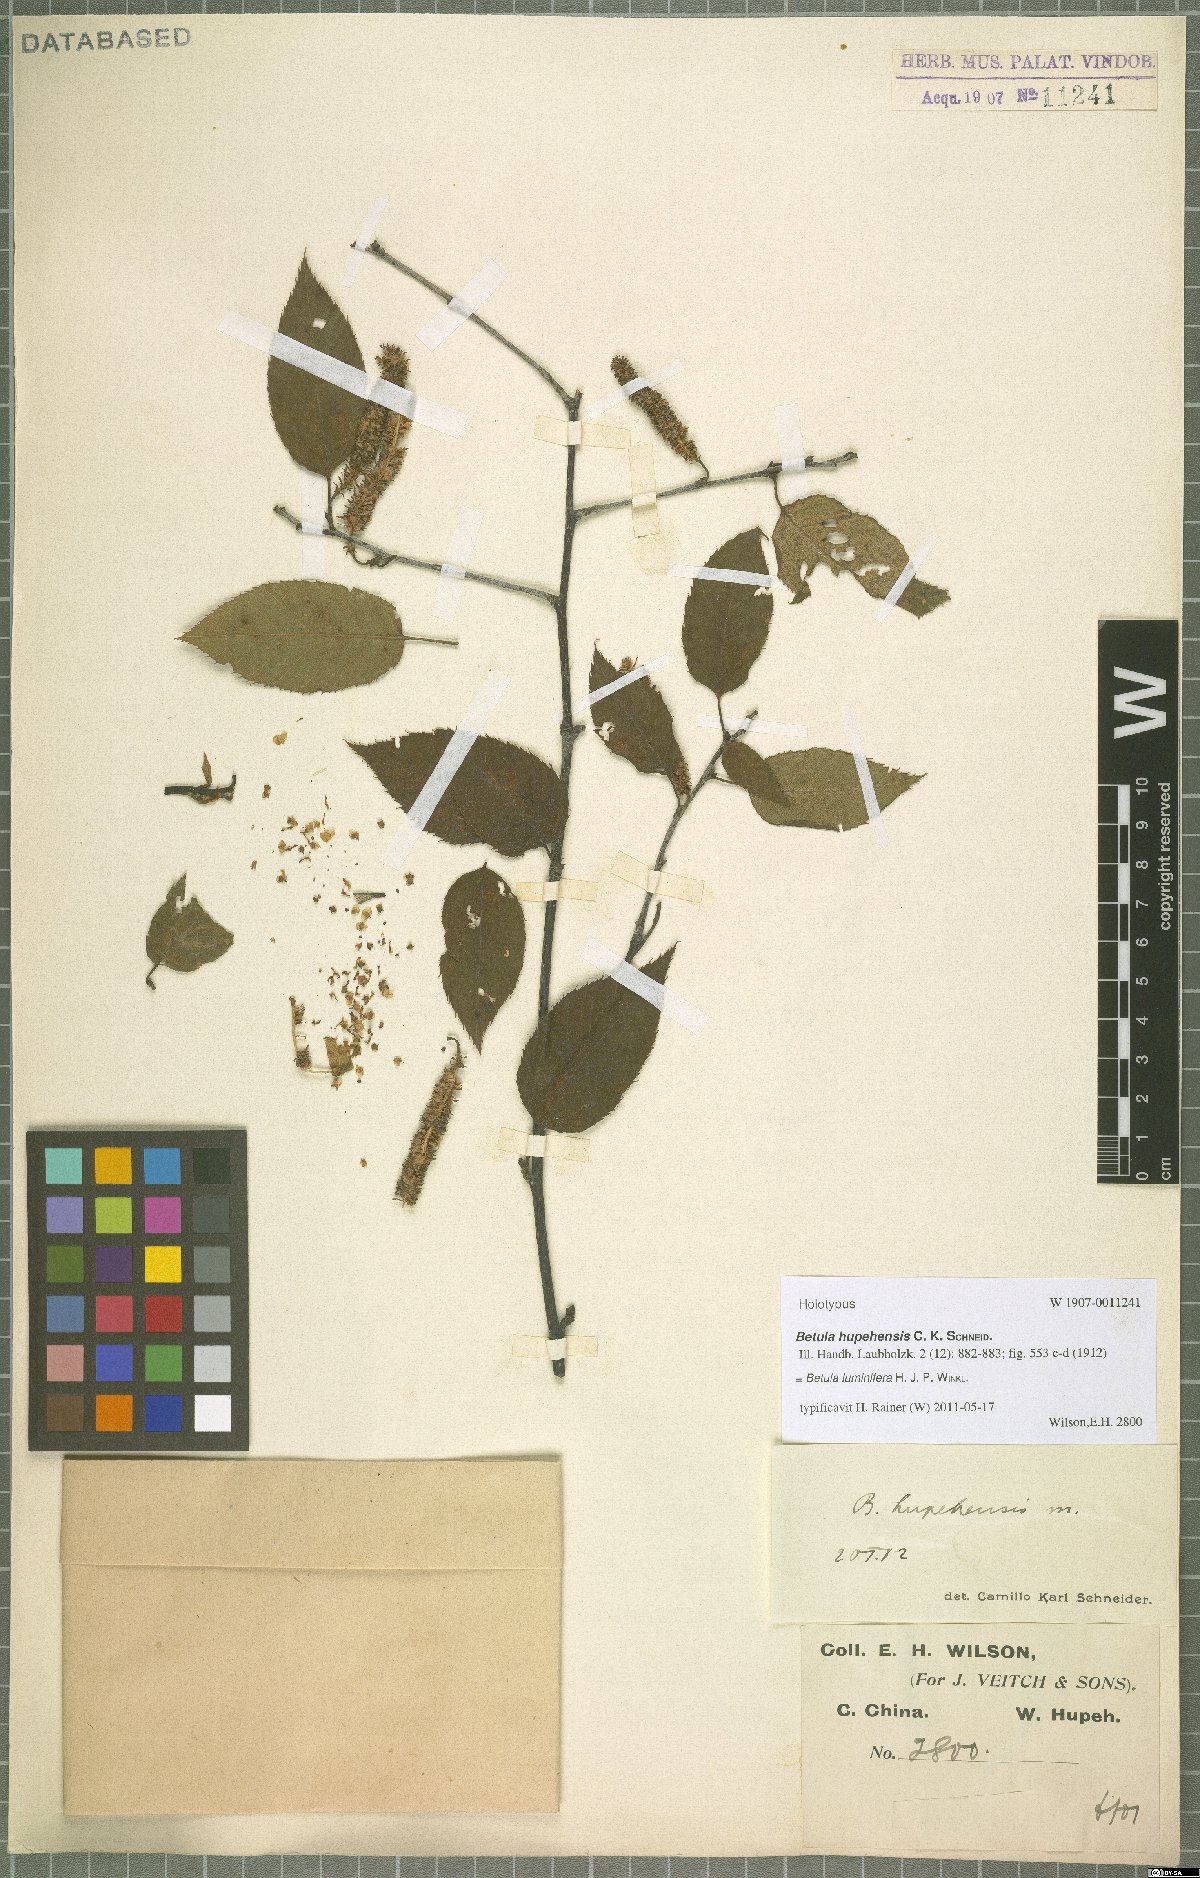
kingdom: Plantae
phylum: Tracheophyta
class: Magnoliopsida
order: Fagales
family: Betulaceae
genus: Betula
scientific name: Betula luminifera
